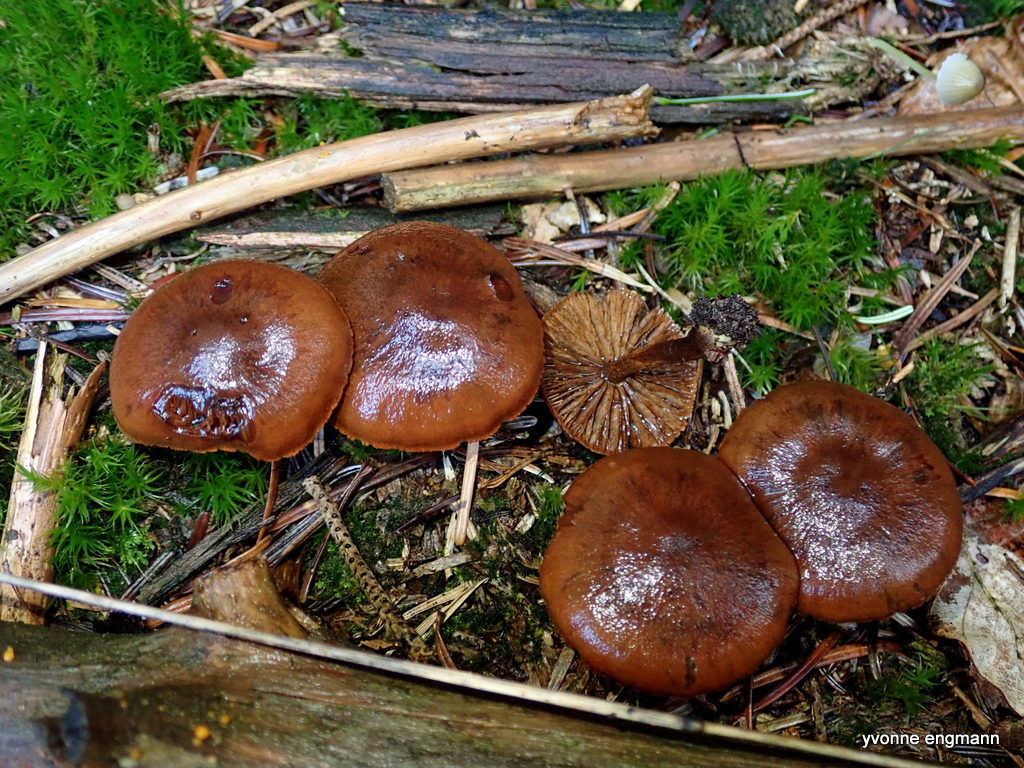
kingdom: Fungi
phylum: Basidiomycota
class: Agaricomycetes
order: Agaricales
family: Cortinariaceae
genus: Cortinarius
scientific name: Cortinarius
